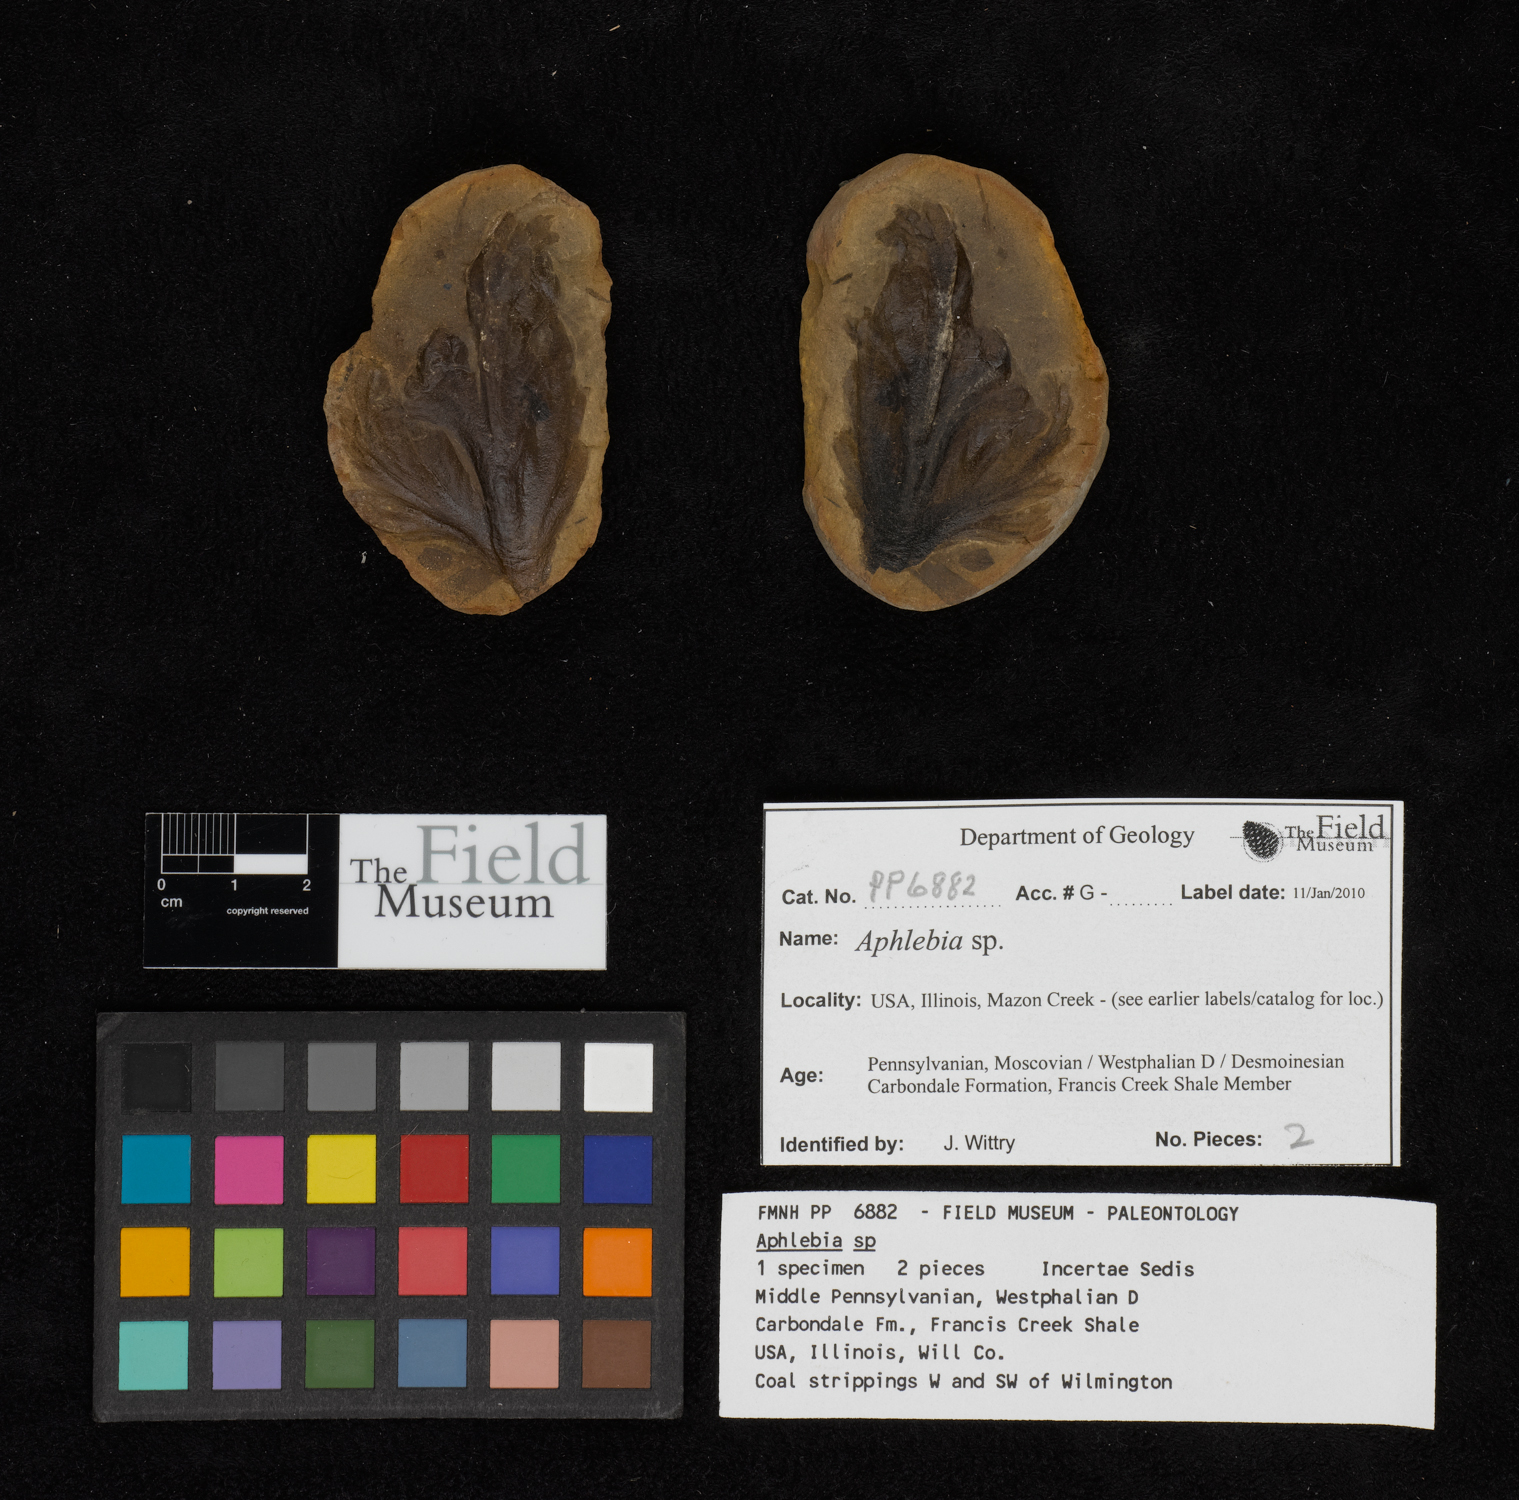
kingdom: Plantae
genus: Rhacophyllum
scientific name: Rhacophyllum
